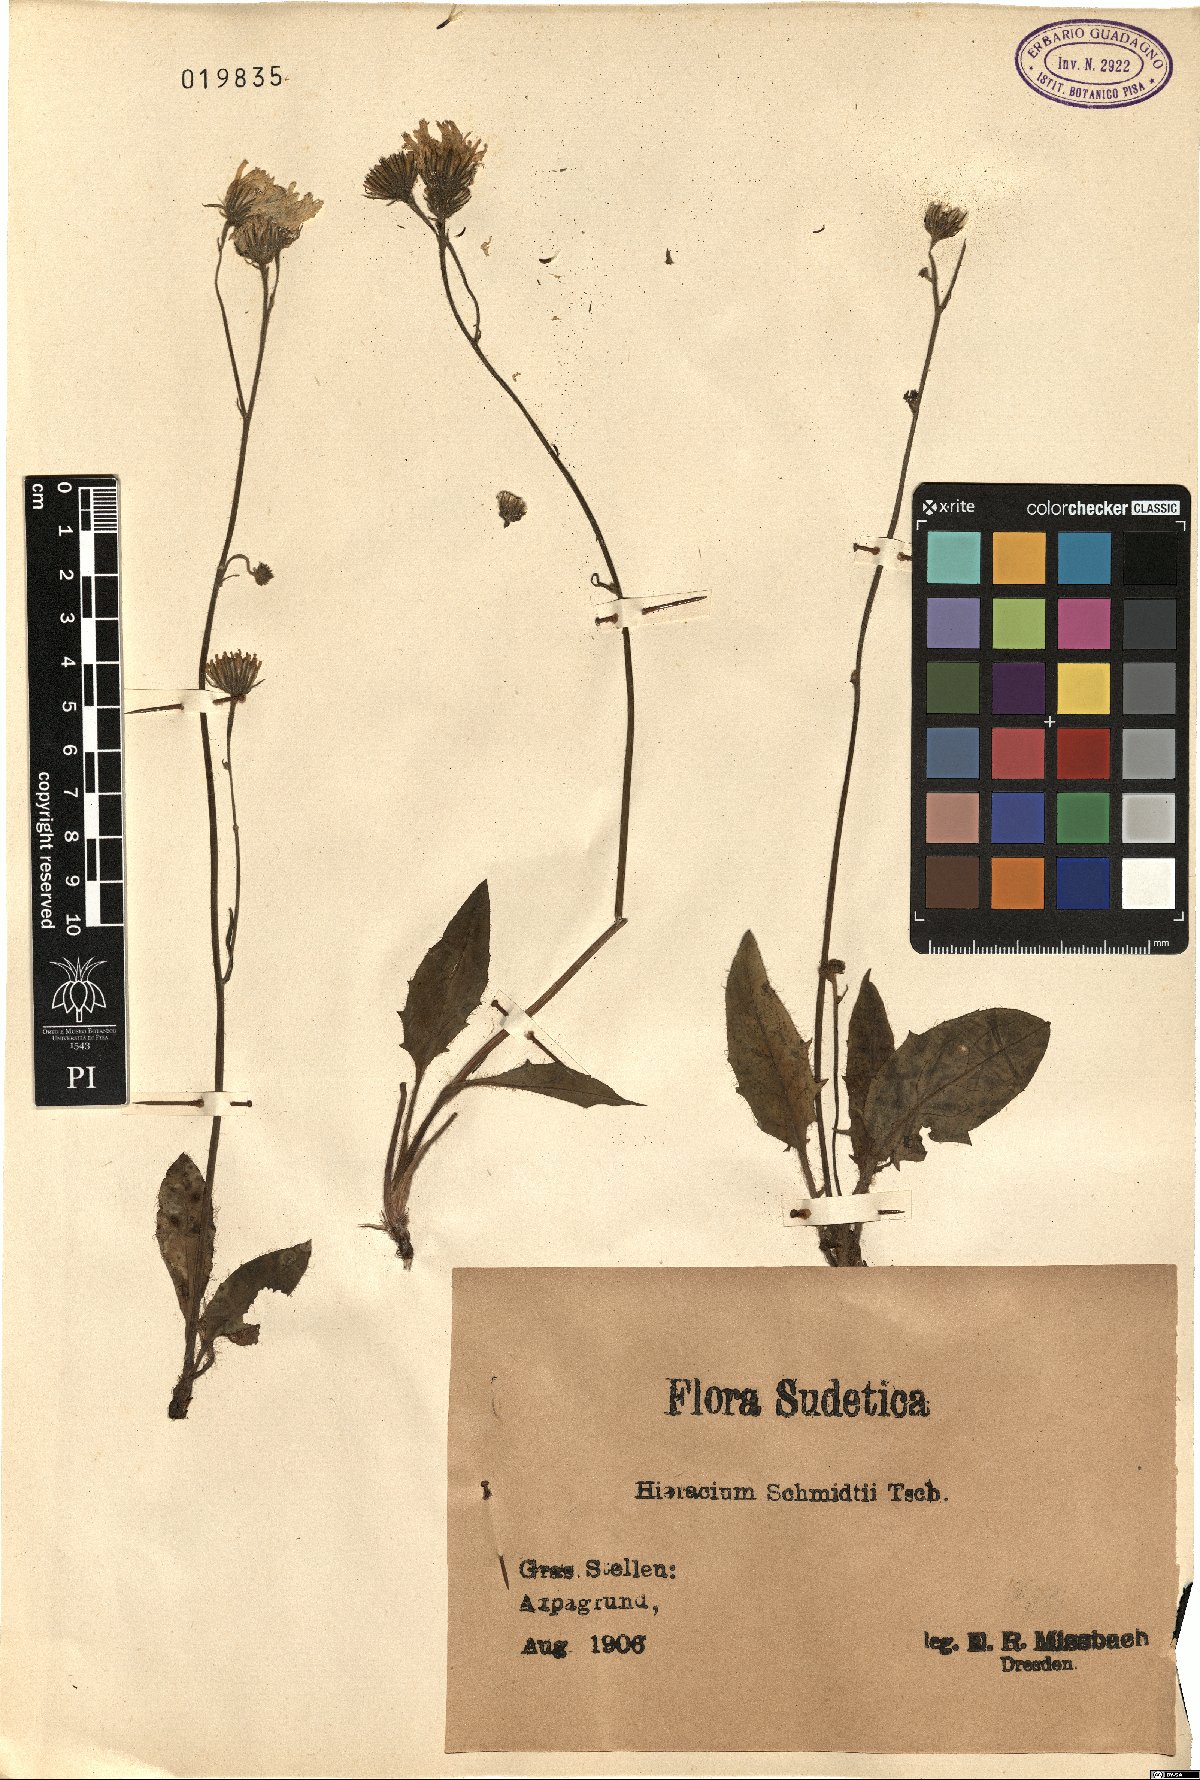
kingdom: Plantae
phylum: Tracheophyta
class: Magnoliopsida
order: Asterales
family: Asteraceae
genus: Hieracium
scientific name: Hieracium schmidtii
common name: Schmidt's hawkweed
